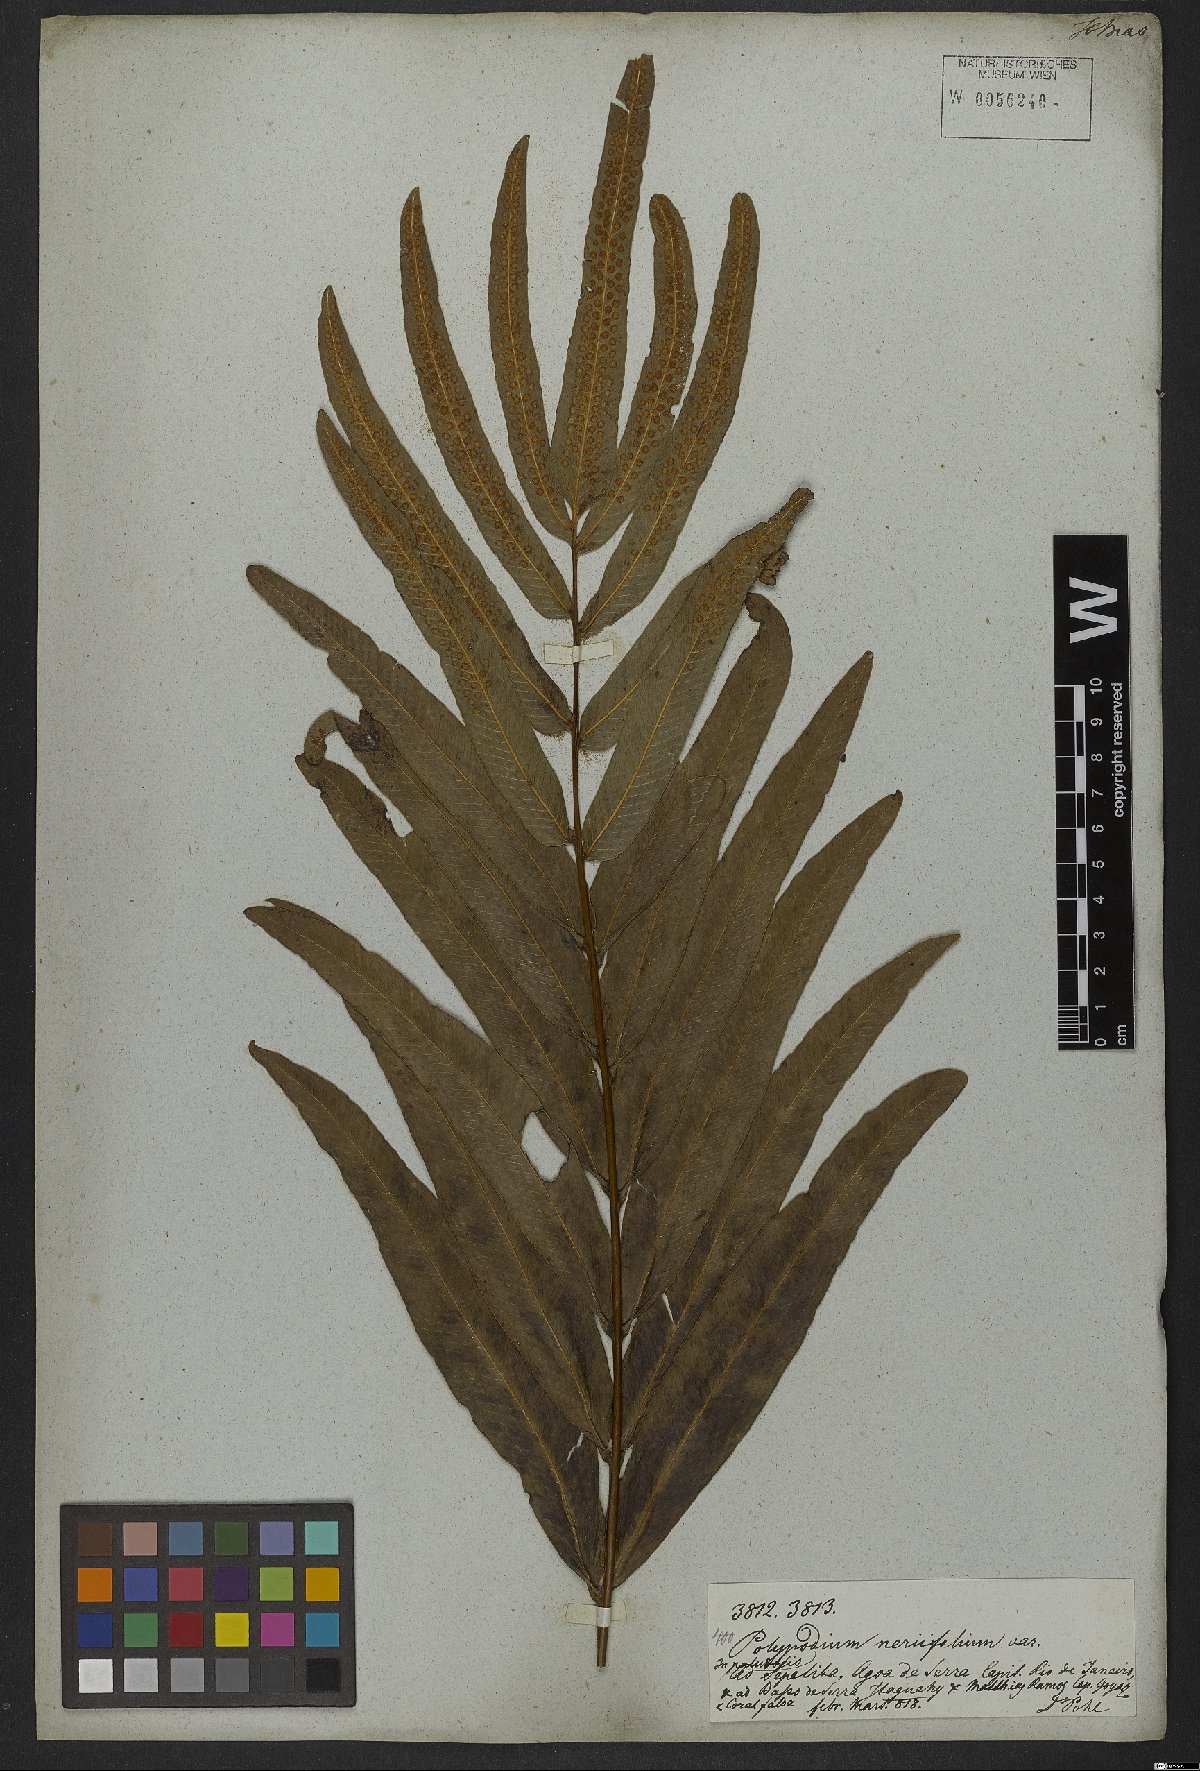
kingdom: Plantae
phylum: Tracheophyta
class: Polypodiopsida
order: Polypodiales
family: Polypodiaceae
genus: Serpocaulon
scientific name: Serpocaulon triseriale
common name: Angle-vein fern
